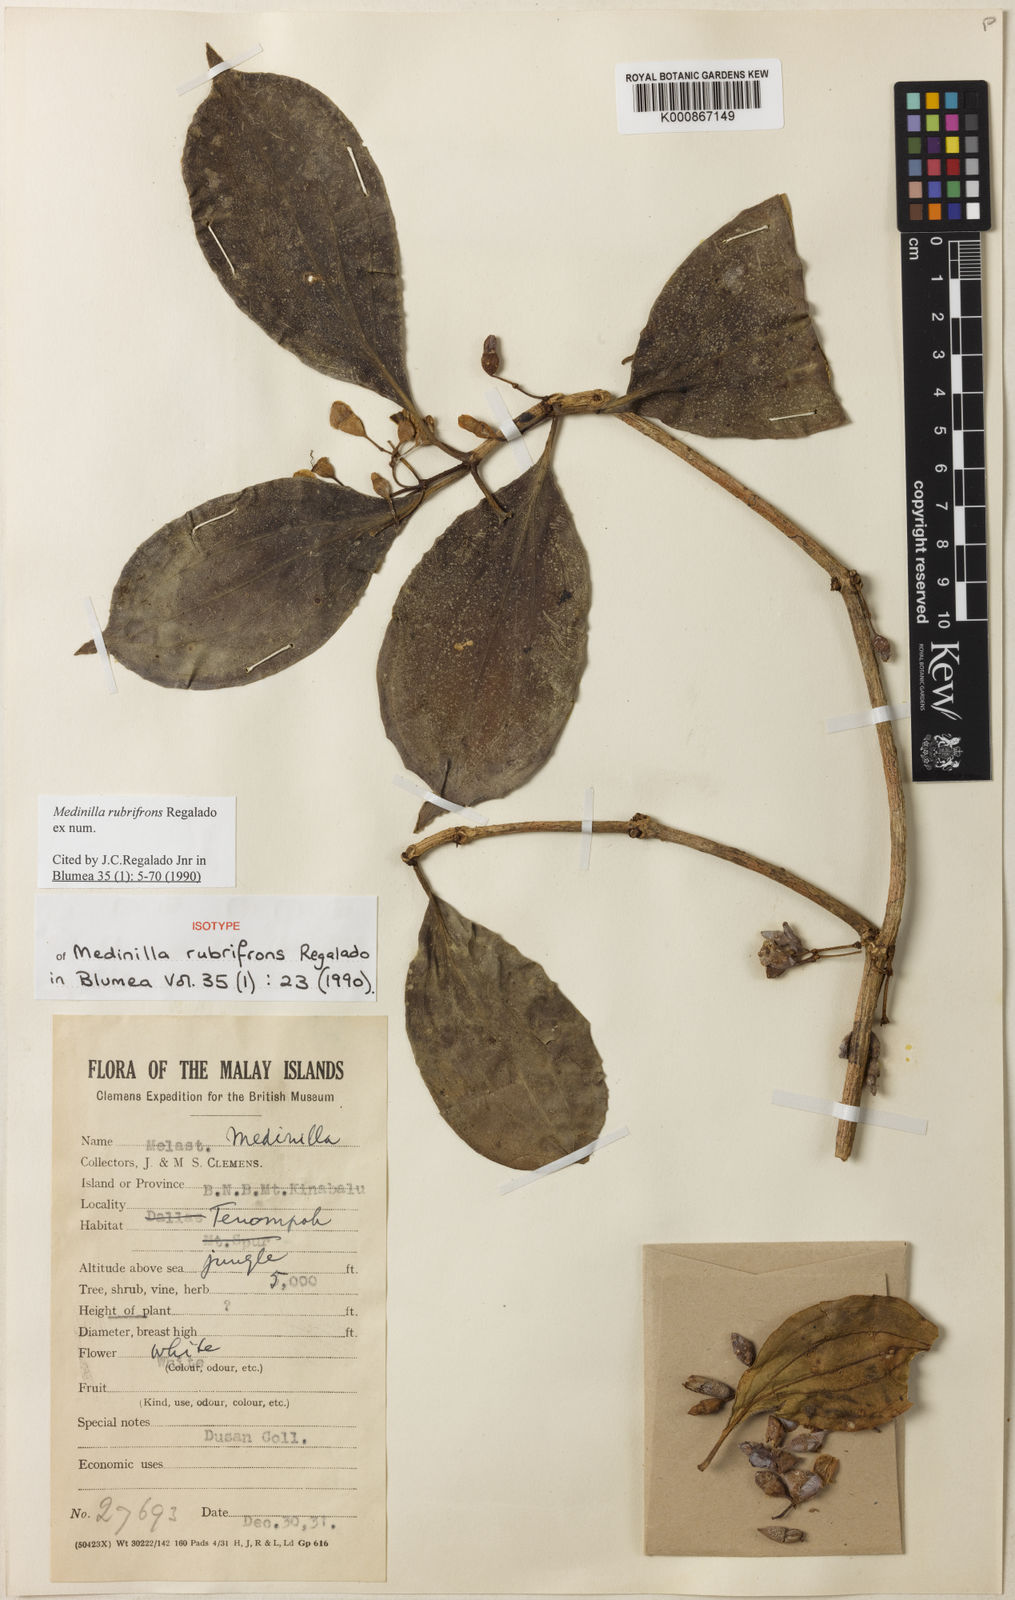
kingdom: Plantae
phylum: Tracheophyta
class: Magnoliopsida
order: Myrtales
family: Melastomataceae
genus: Medinilla
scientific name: Medinilla rubrifrons
